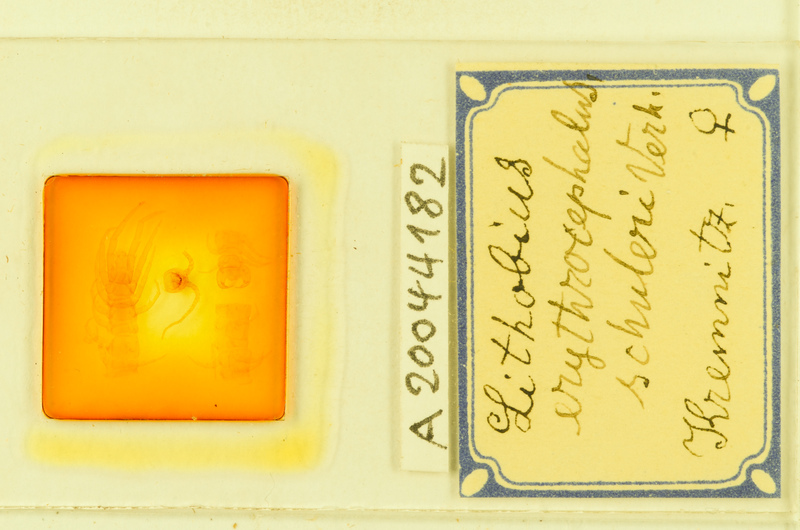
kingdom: Animalia
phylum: Arthropoda
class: Chilopoda
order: Lithobiomorpha
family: Lithobiidae
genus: Lithobius
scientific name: Lithobius erythrocephalus
